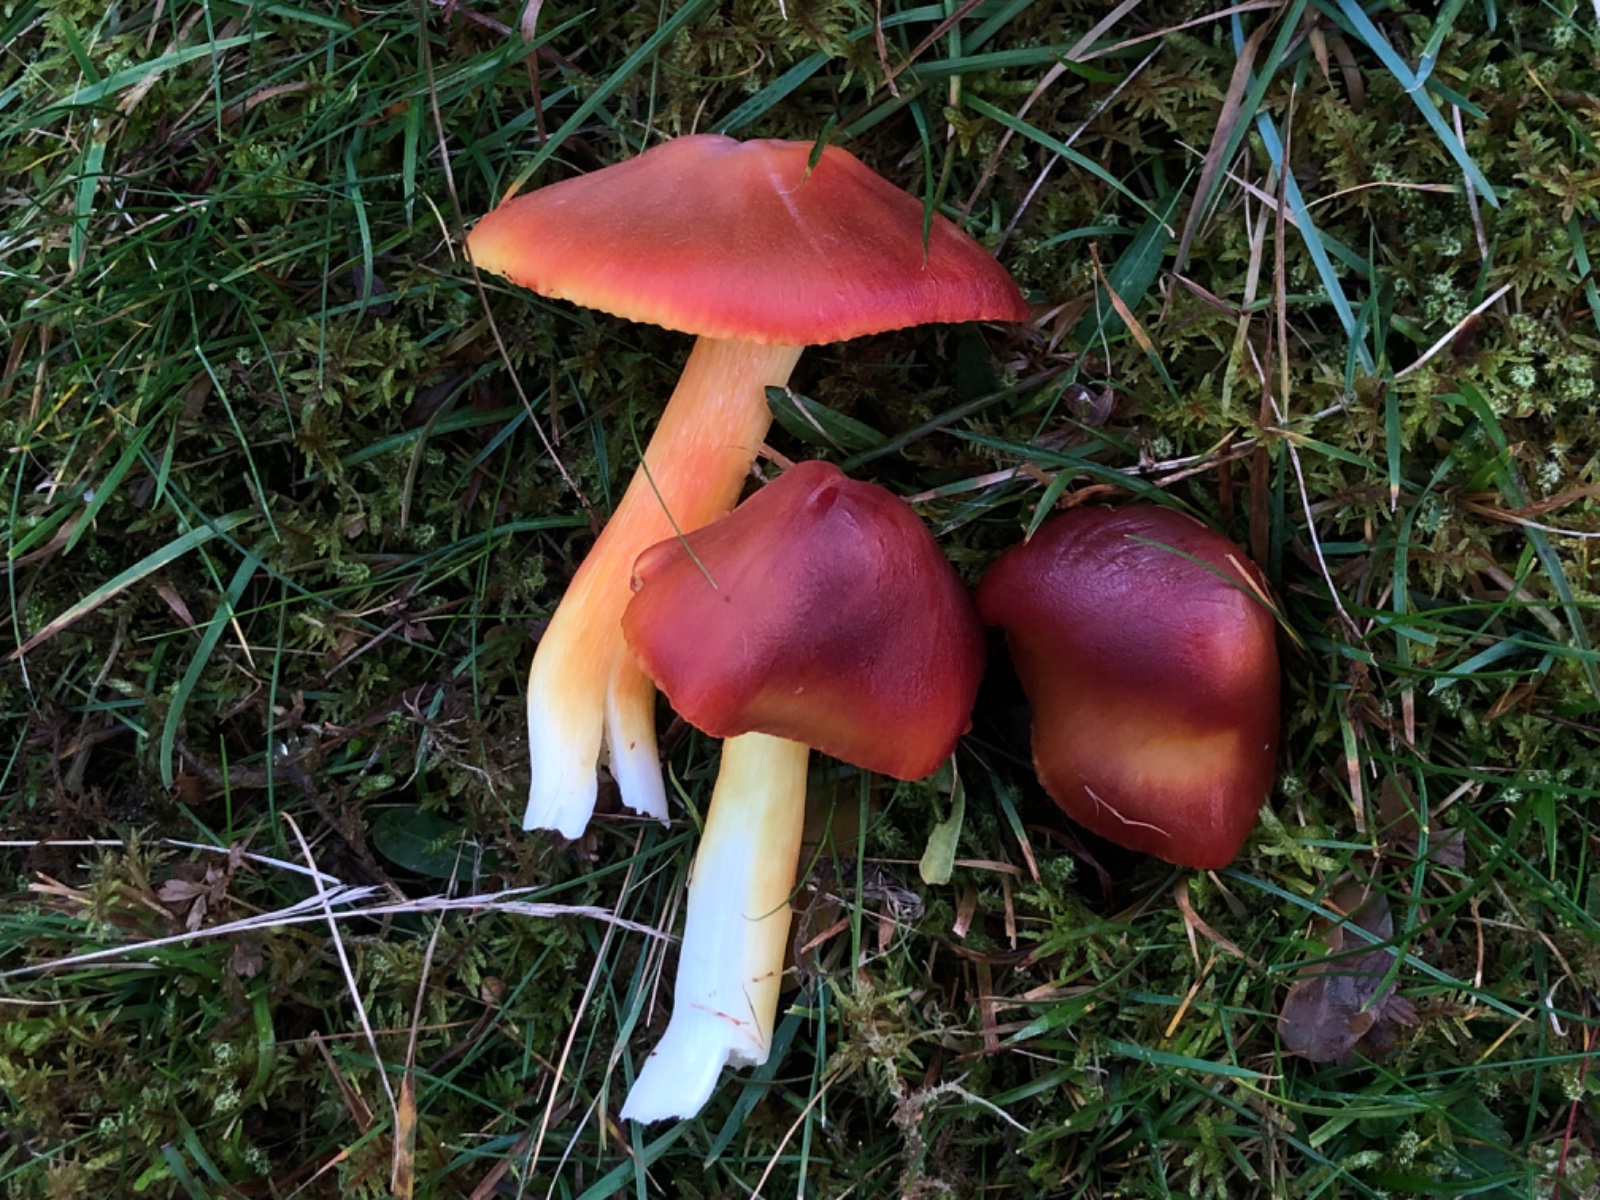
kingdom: Fungi
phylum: Basidiomycota
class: Agaricomycetes
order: Agaricales
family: Hygrophoraceae
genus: Hygrocybe
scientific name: Hygrocybe punicea
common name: skarlagen-vokshat
